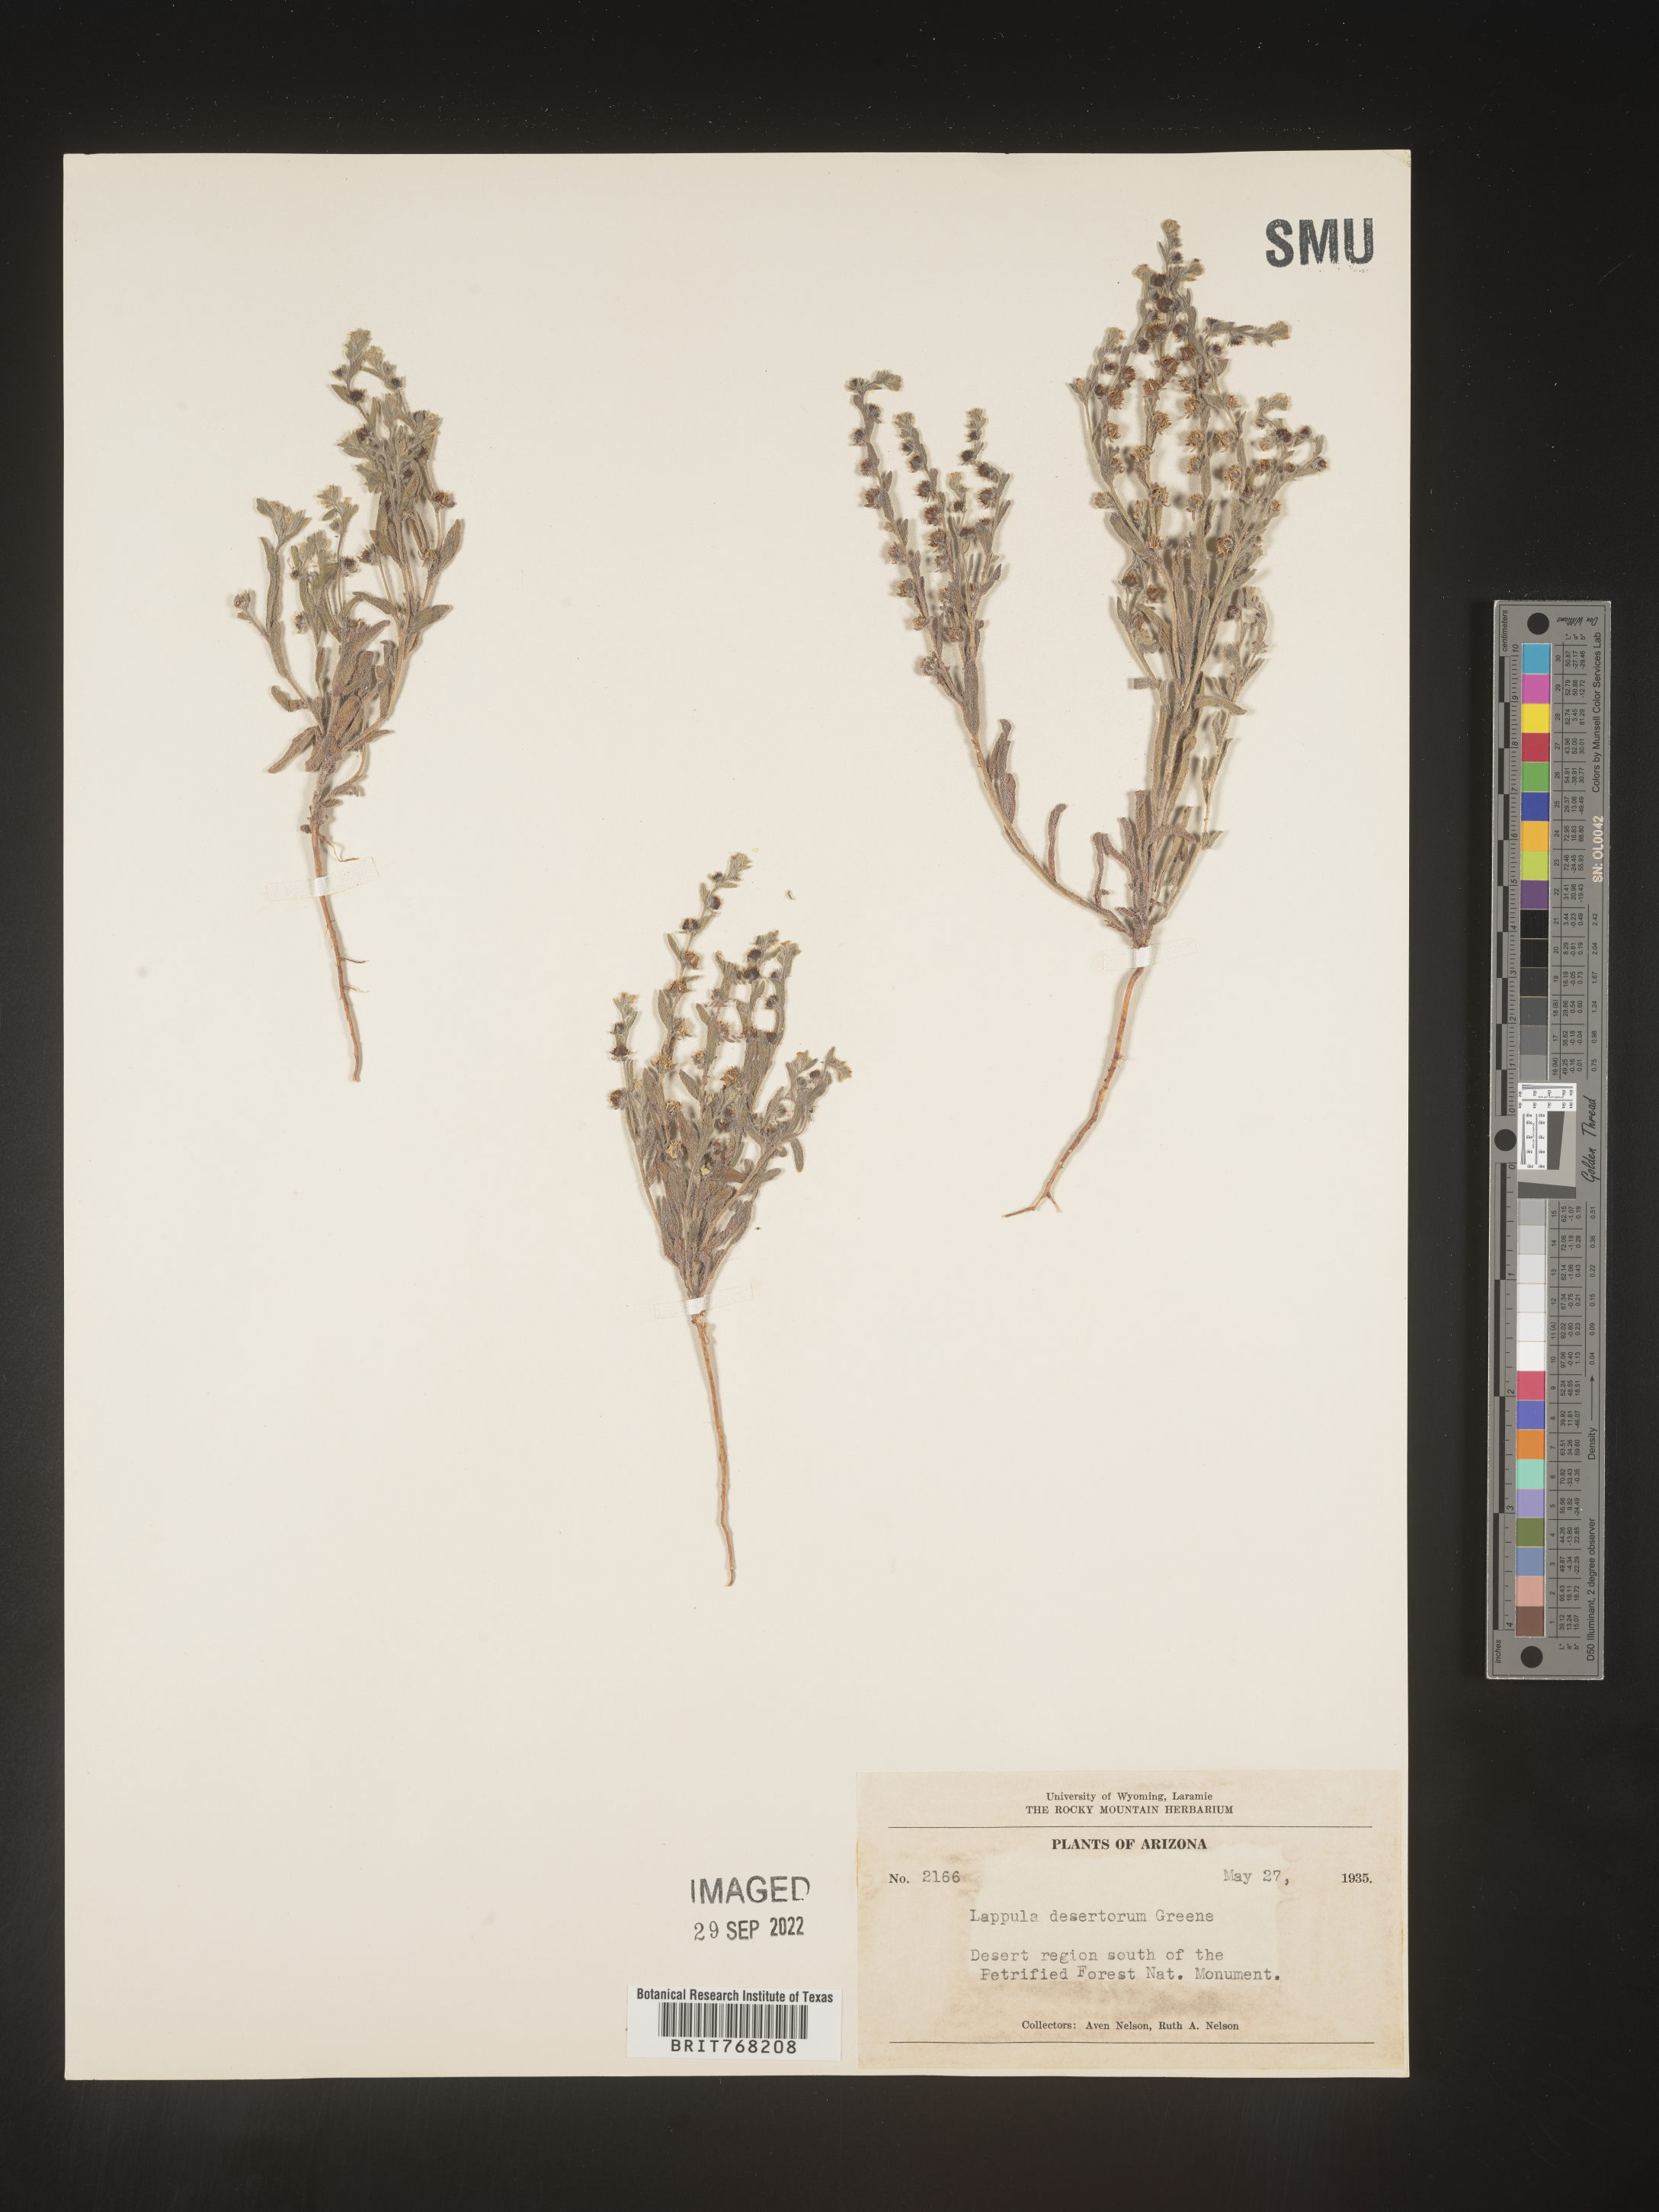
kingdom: Plantae
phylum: Tracheophyta
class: Magnoliopsida
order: Boraginales
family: Boraginaceae
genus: Lappula
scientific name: Lappula
